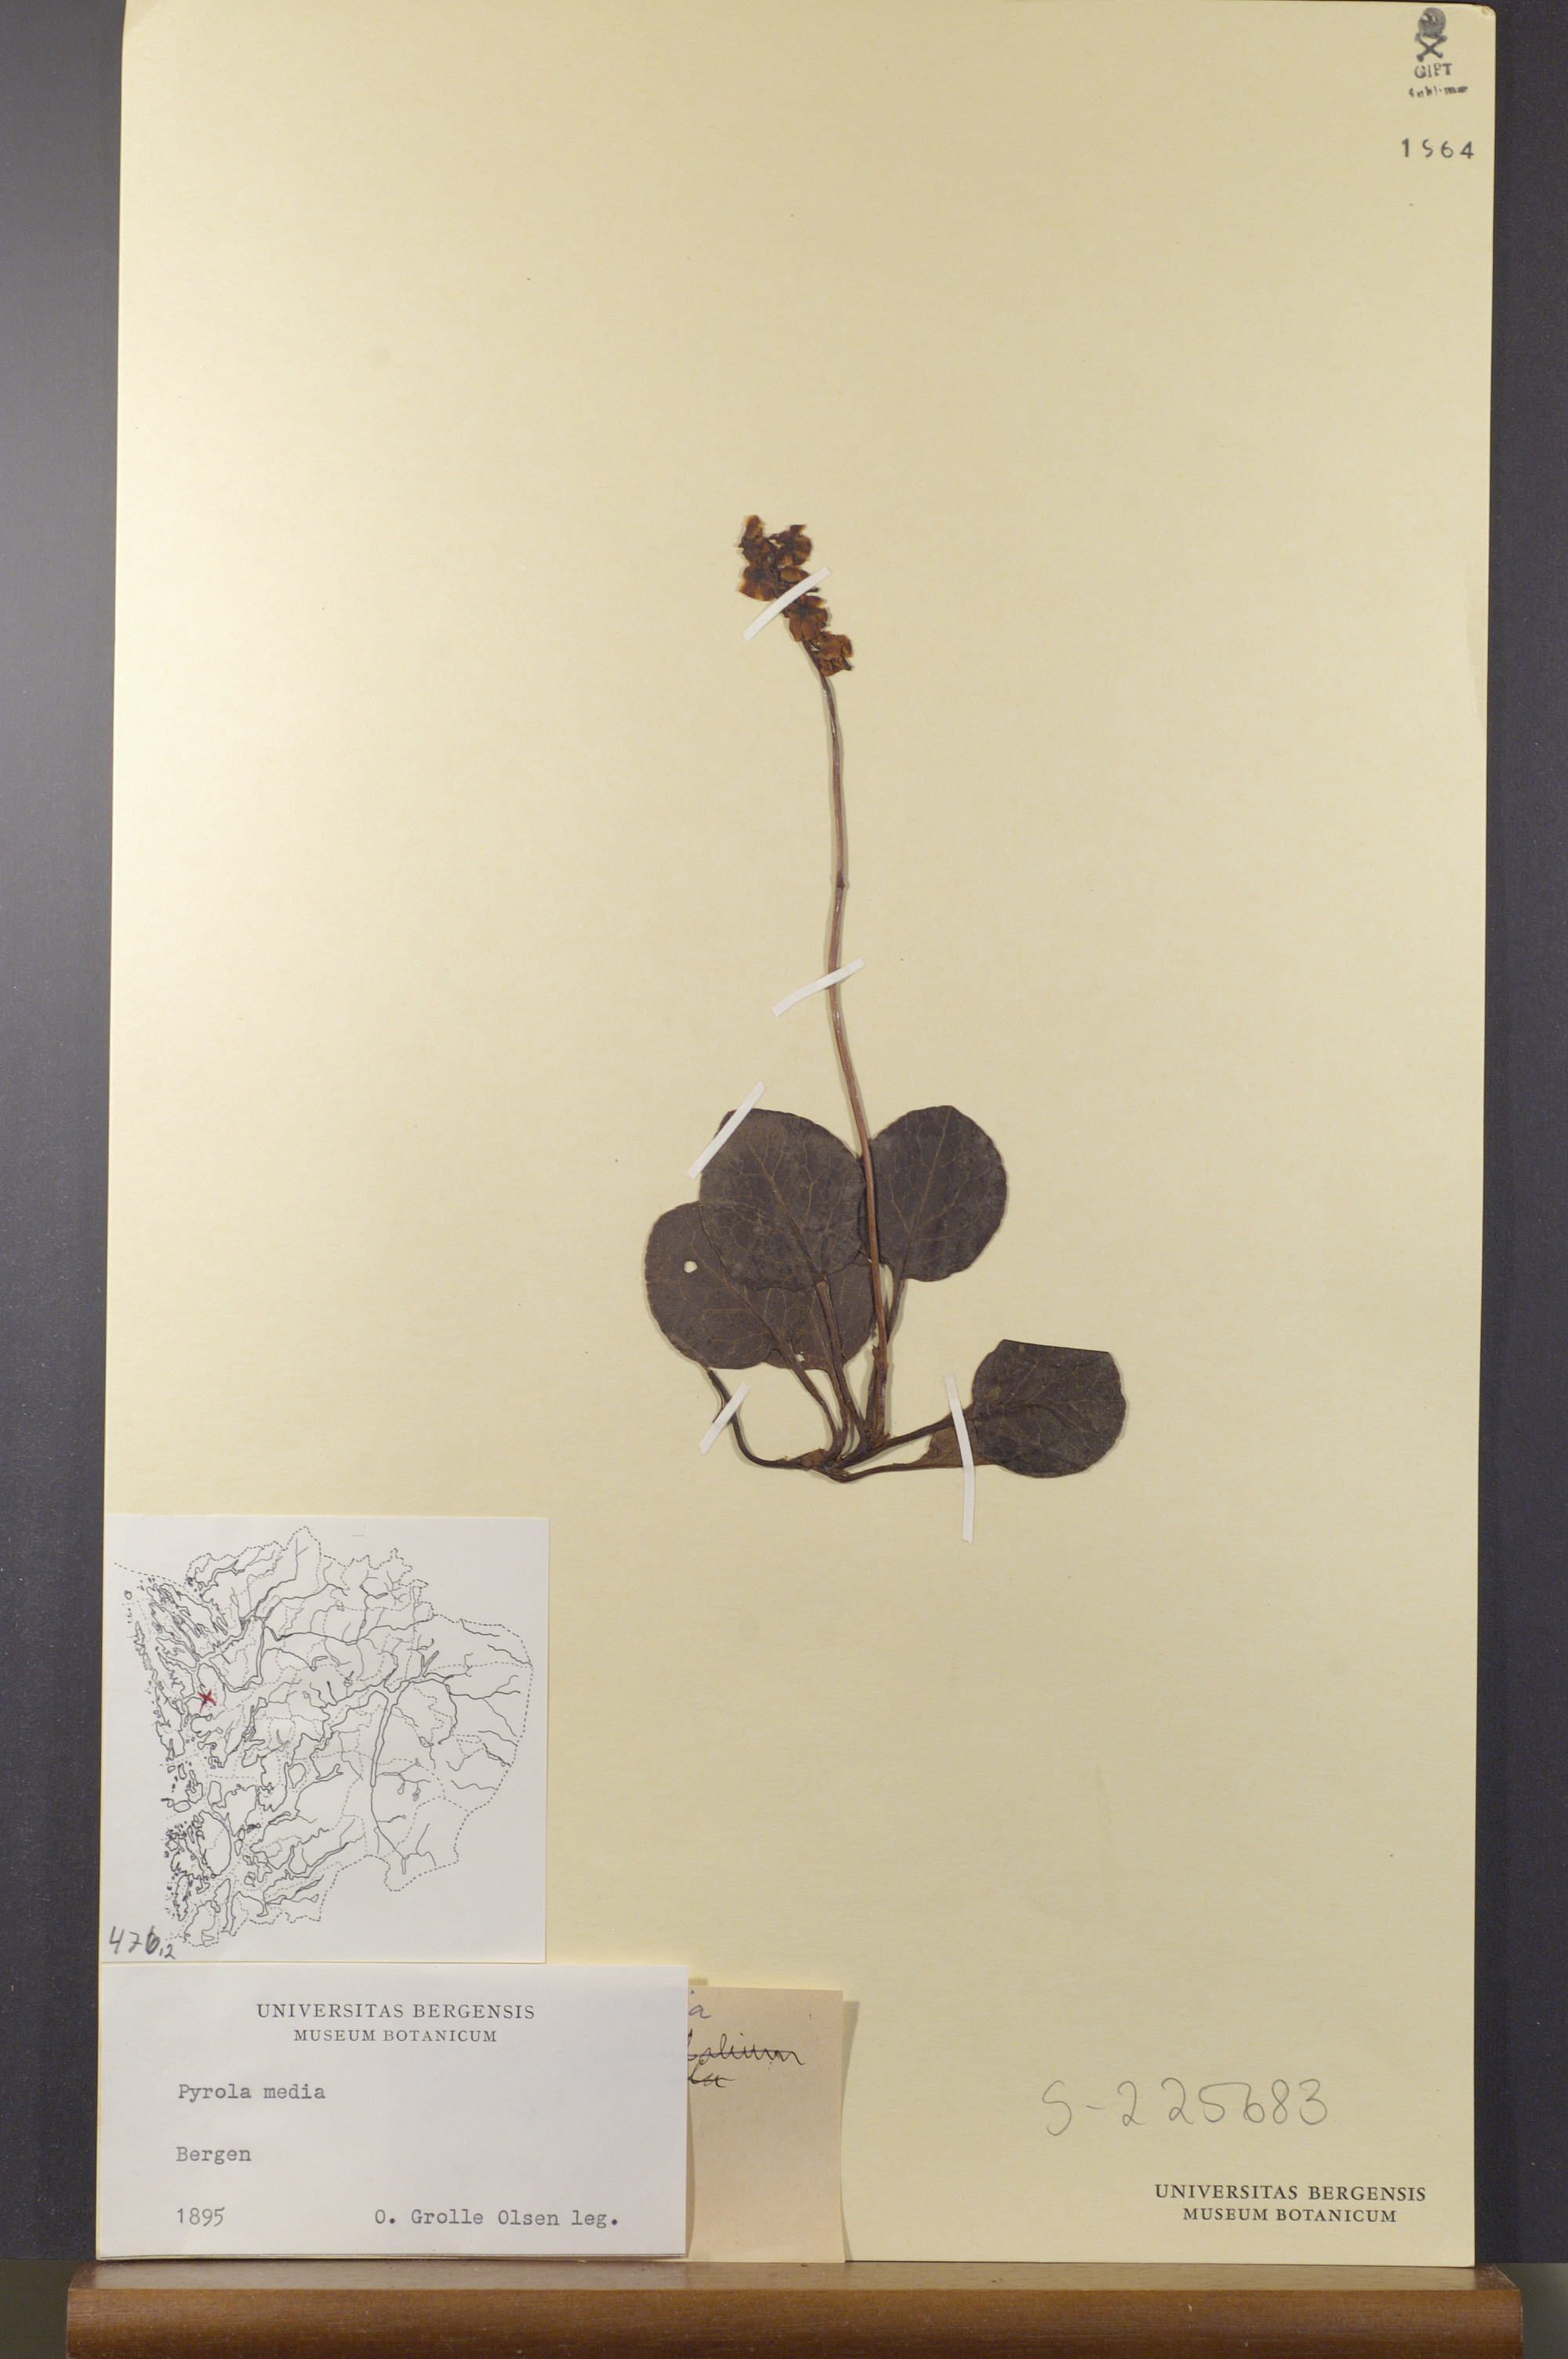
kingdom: Plantae
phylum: Tracheophyta
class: Magnoliopsida
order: Ericales
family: Ericaceae
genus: Pyrola
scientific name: Pyrola media
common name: Intermediate wintergreen
